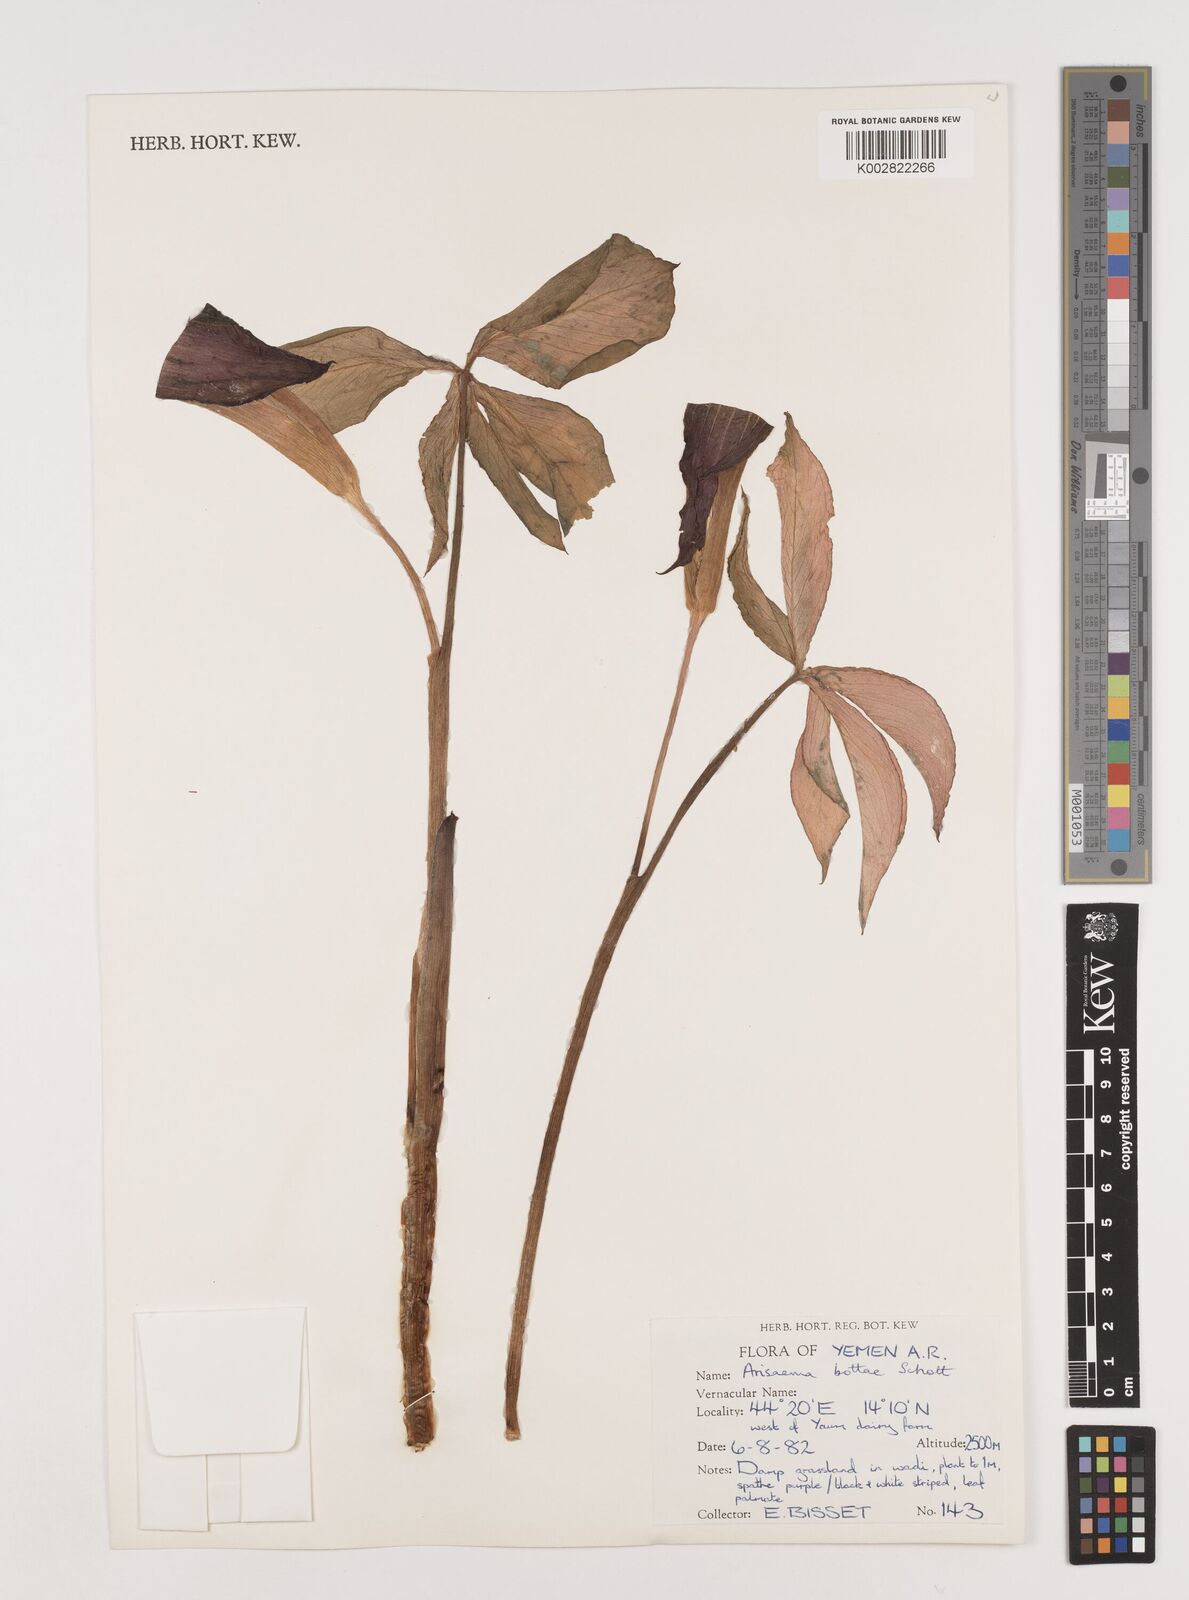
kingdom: Plantae
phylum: Tracheophyta
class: Liliopsida
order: Alismatales
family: Araceae
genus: Arisaema
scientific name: Arisaema bottae
